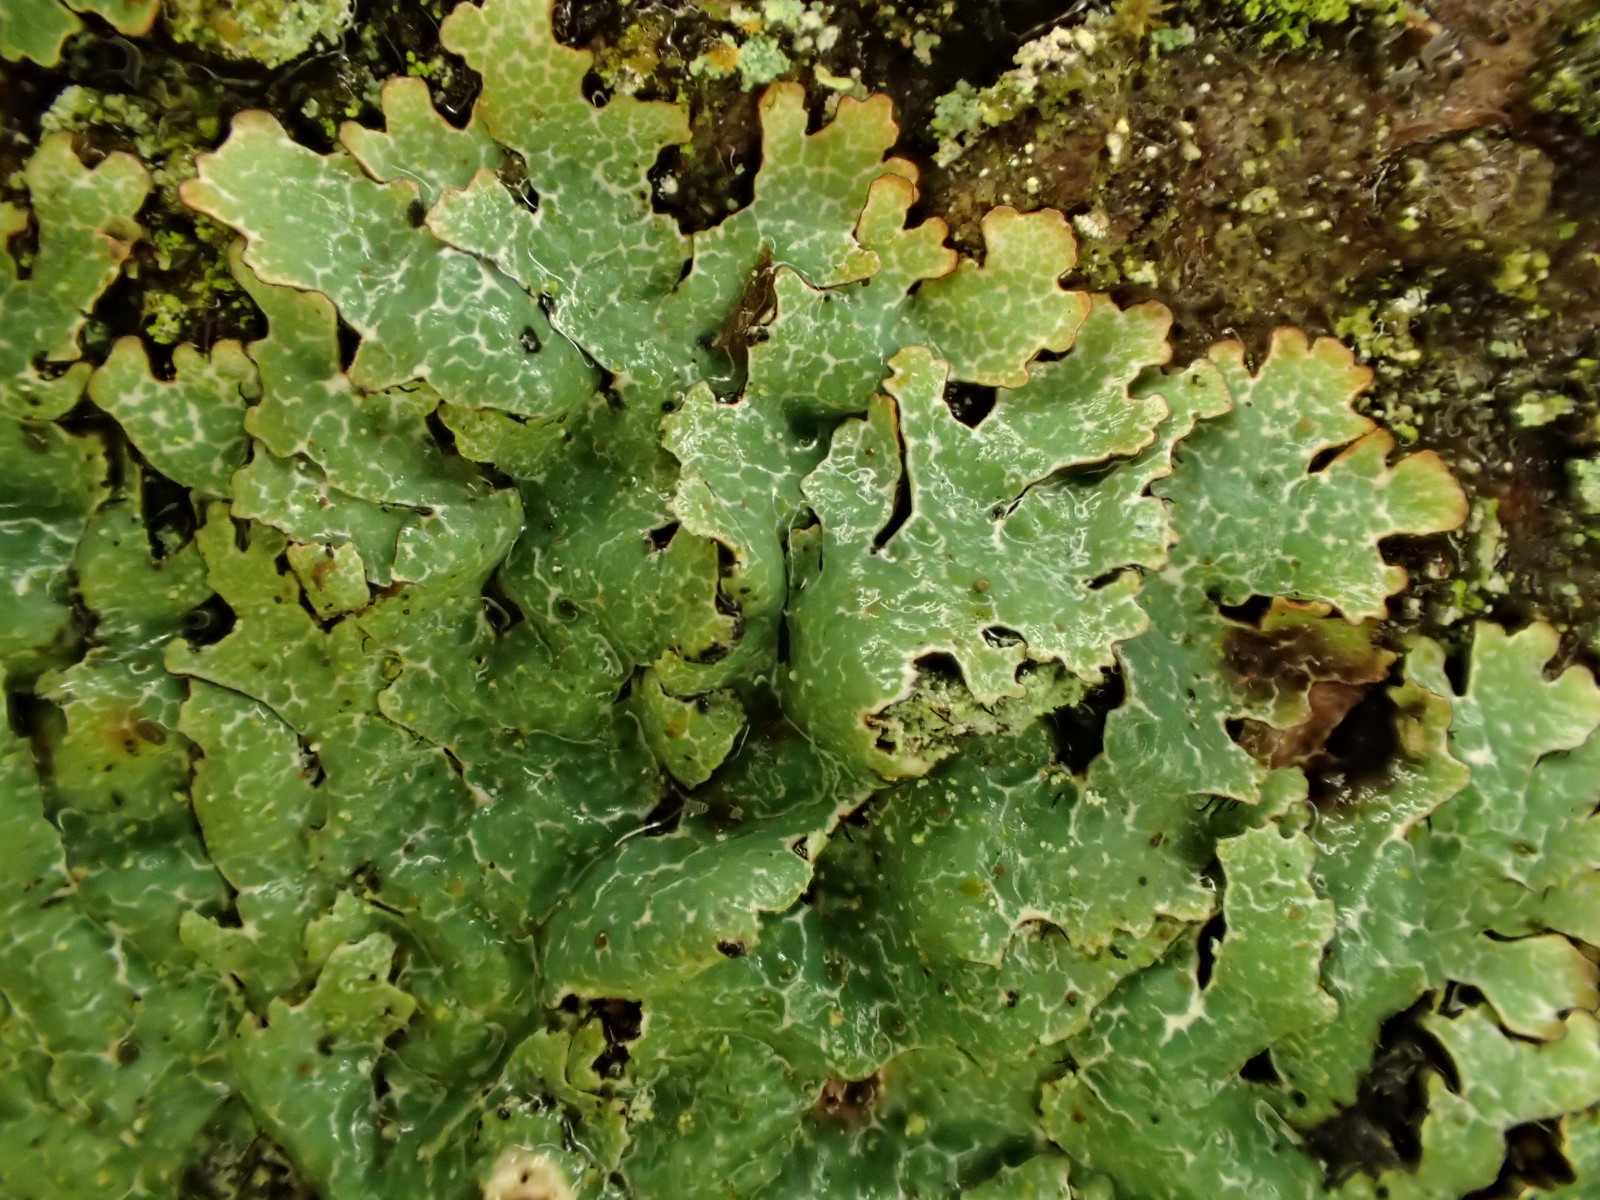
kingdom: Fungi
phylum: Ascomycota
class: Lecanoromycetes
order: Lecanorales
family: Parmeliaceae
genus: Parmelia
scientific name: Parmelia sulcata
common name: rynket skållav
